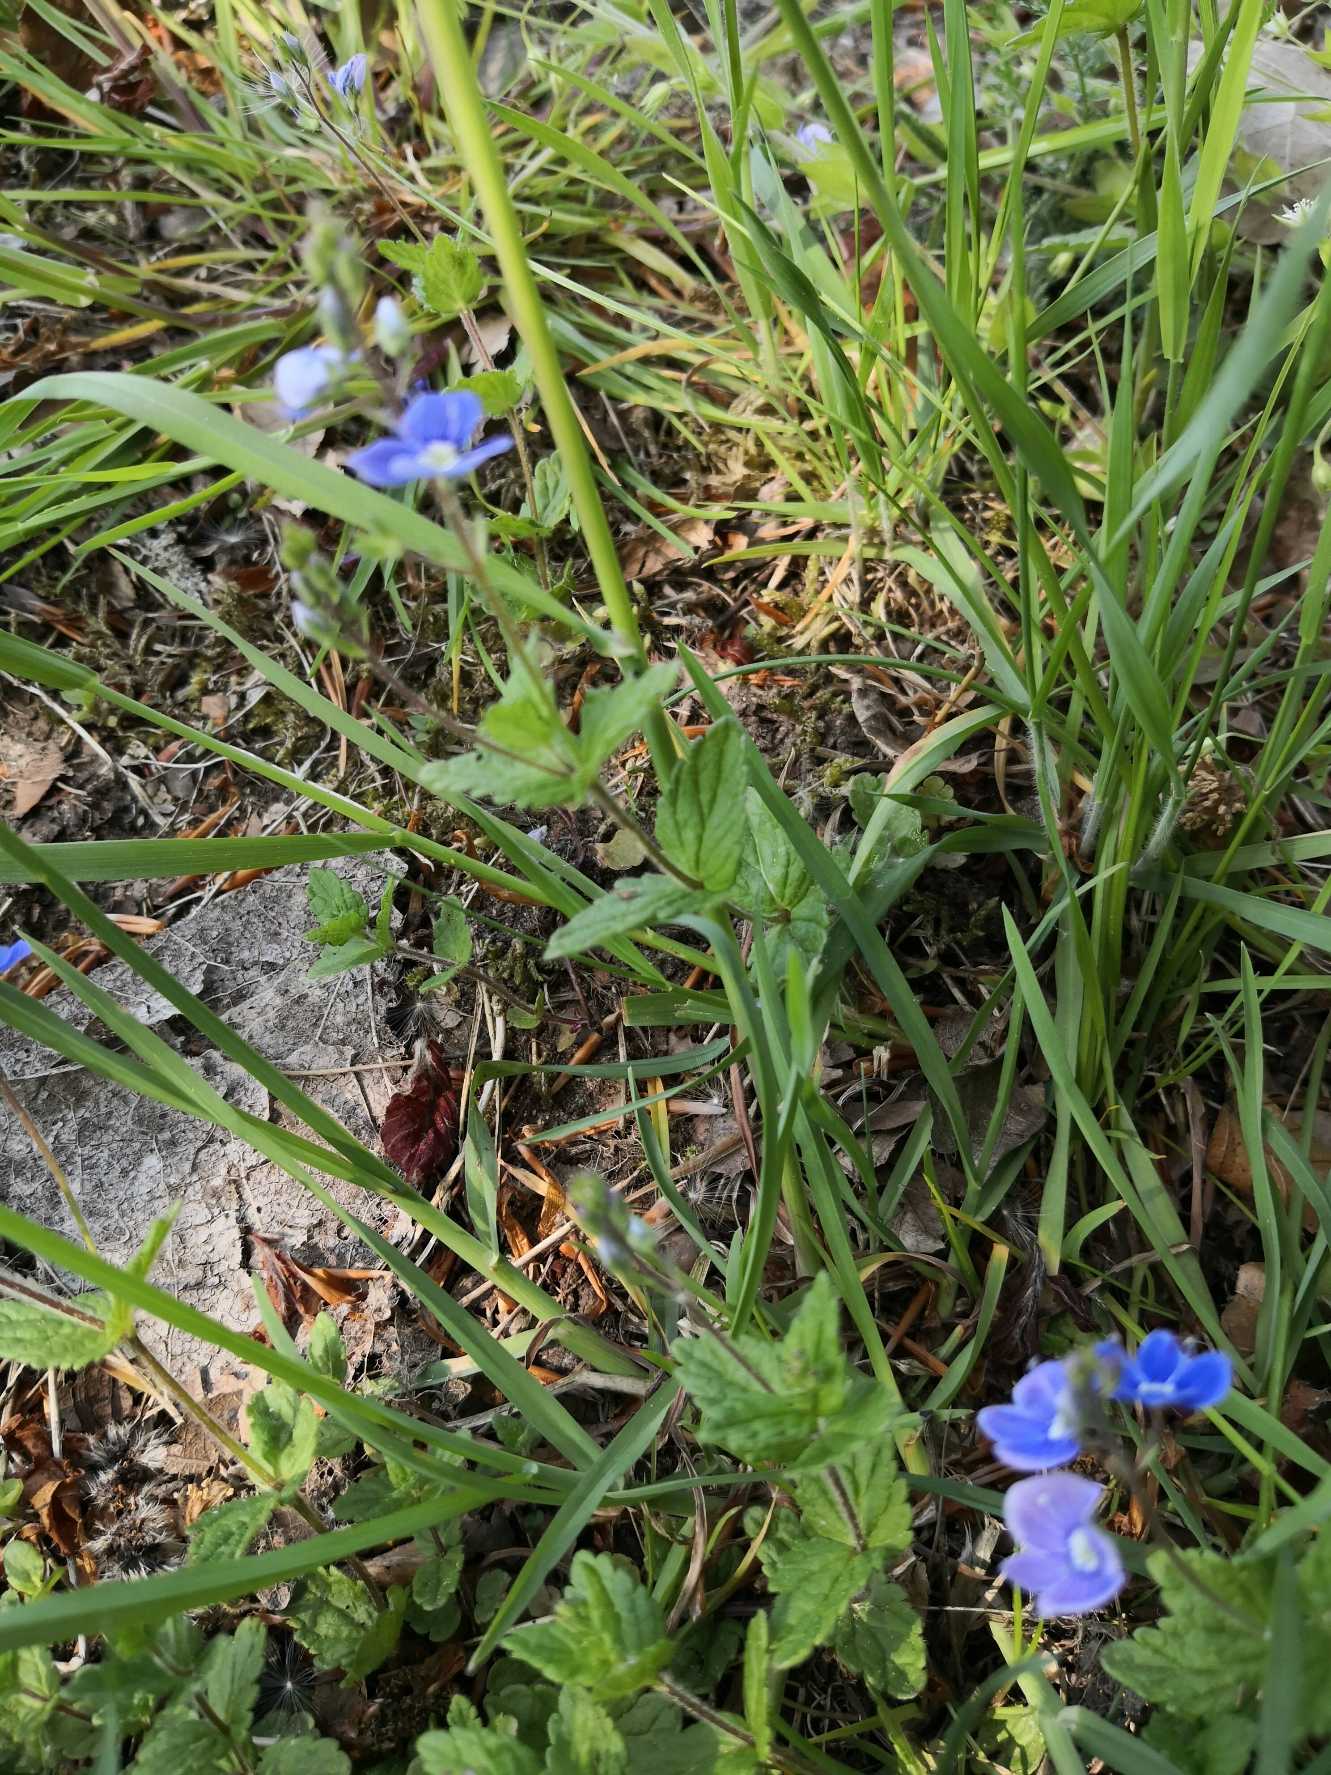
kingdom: Plantae
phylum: Tracheophyta
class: Magnoliopsida
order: Lamiales
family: Plantaginaceae
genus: Veronica
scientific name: Veronica chamaedrys
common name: Tveskægget ærenpris
